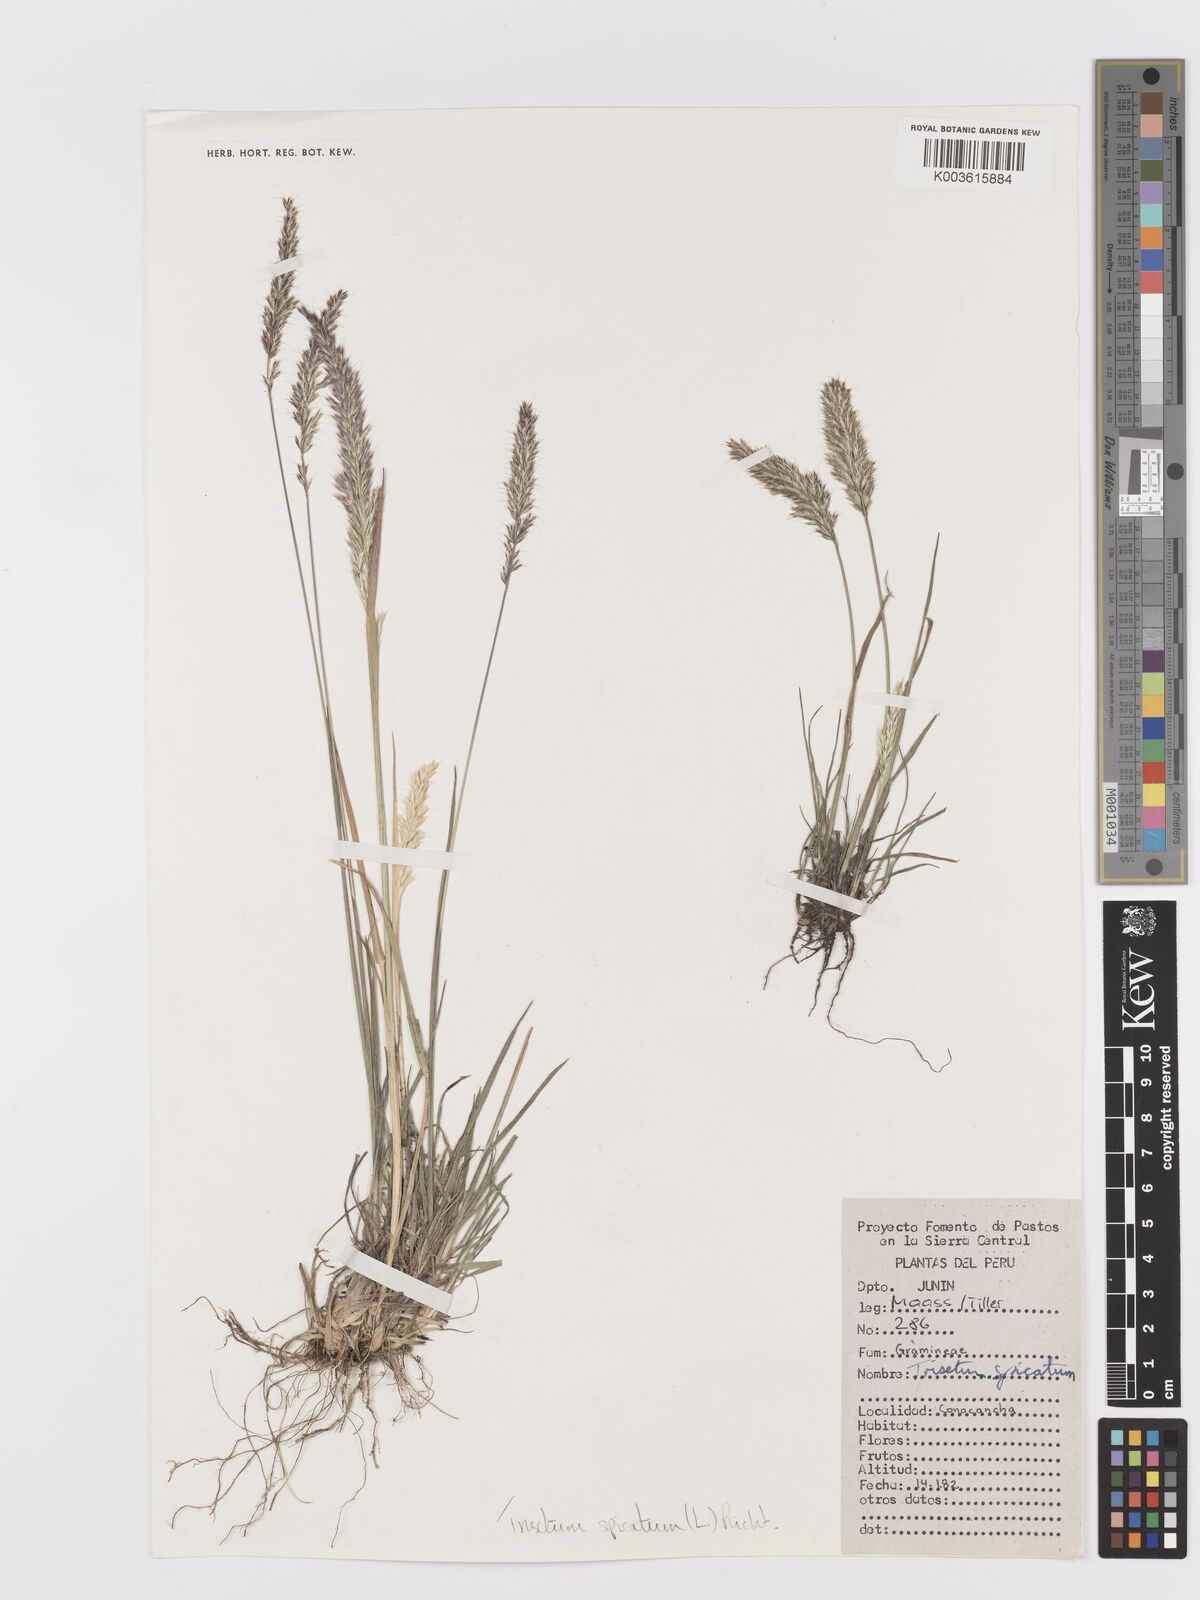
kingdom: Plantae
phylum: Tracheophyta
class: Liliopsida
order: Poales
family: Poaceae
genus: Koeleria
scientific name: Koeleria spicata
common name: Mountain trisetum
